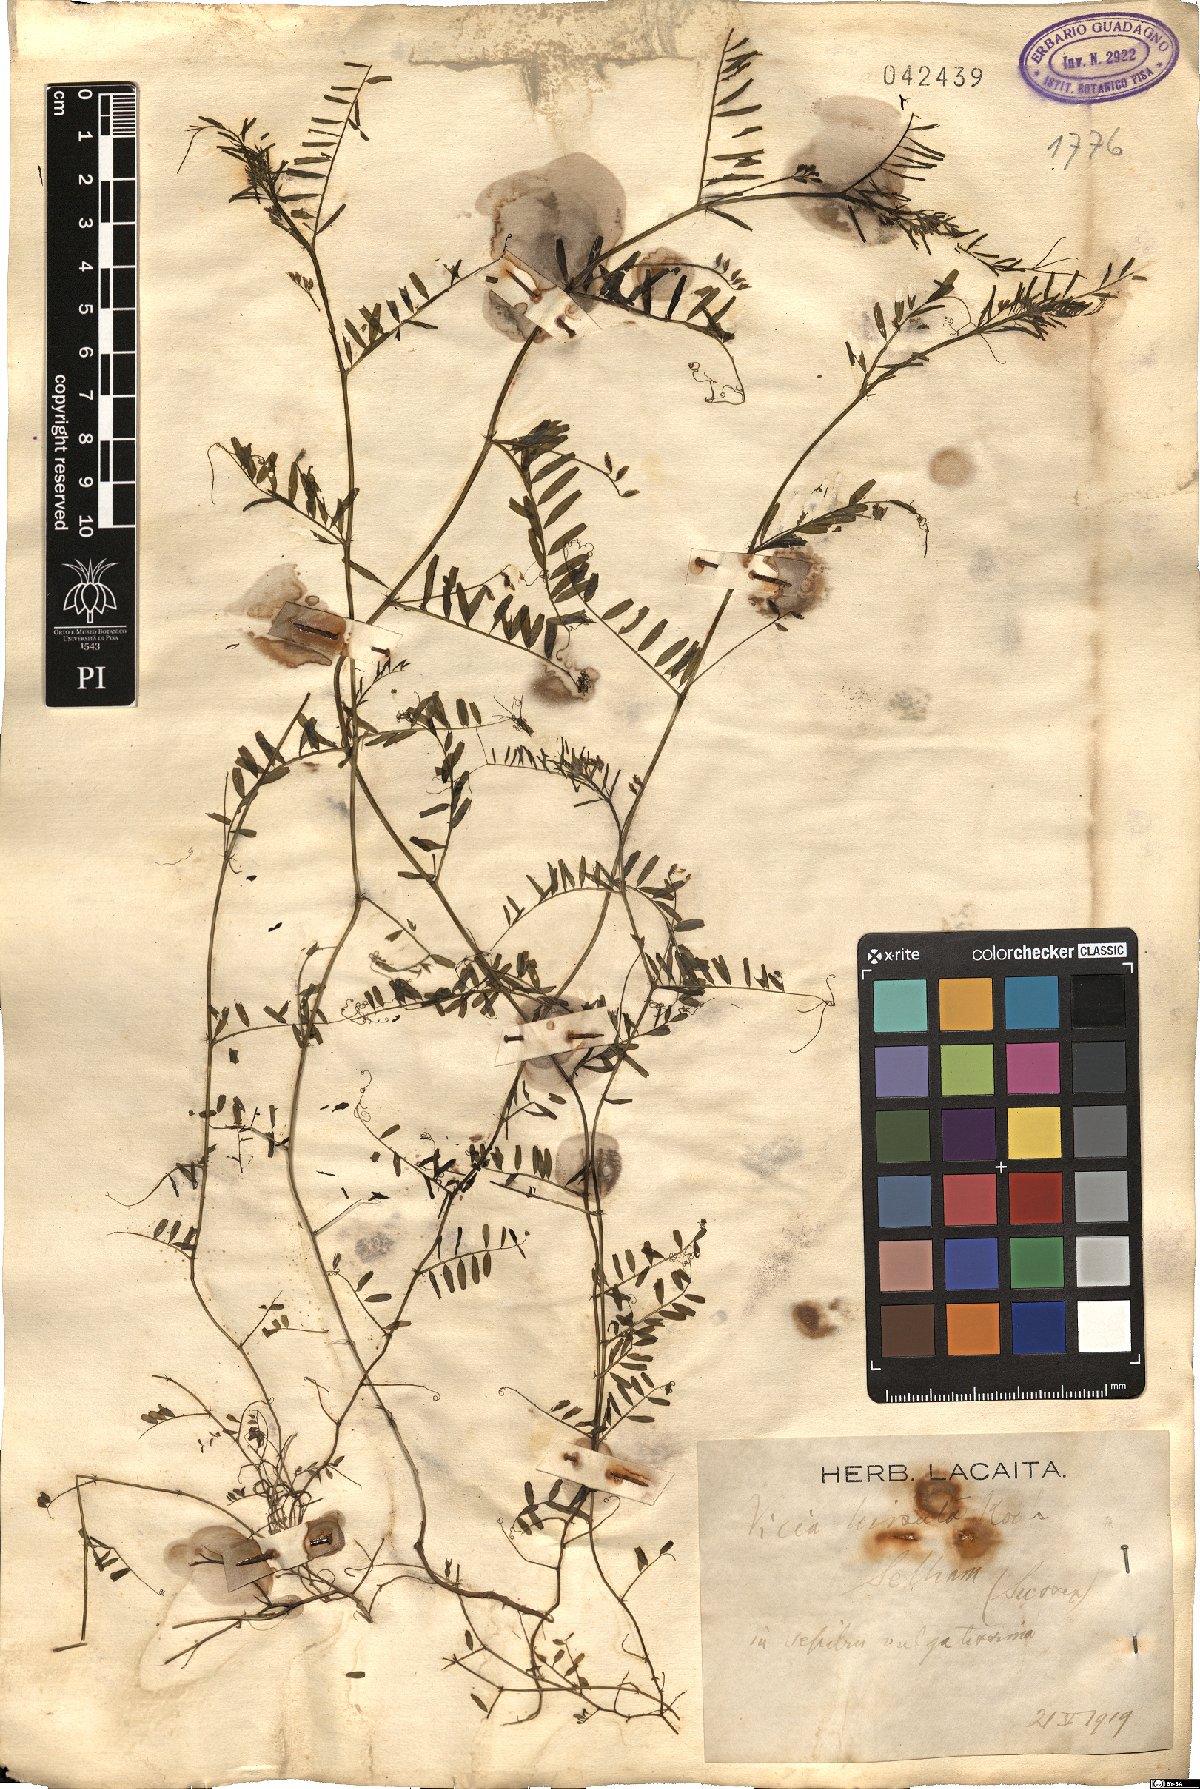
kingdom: Plantae
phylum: Tracheophyta
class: Magnoliopsida
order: Fabales
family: Fabaceae
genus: Vicia
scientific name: Vicia hirsuta
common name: Tiny vetch
